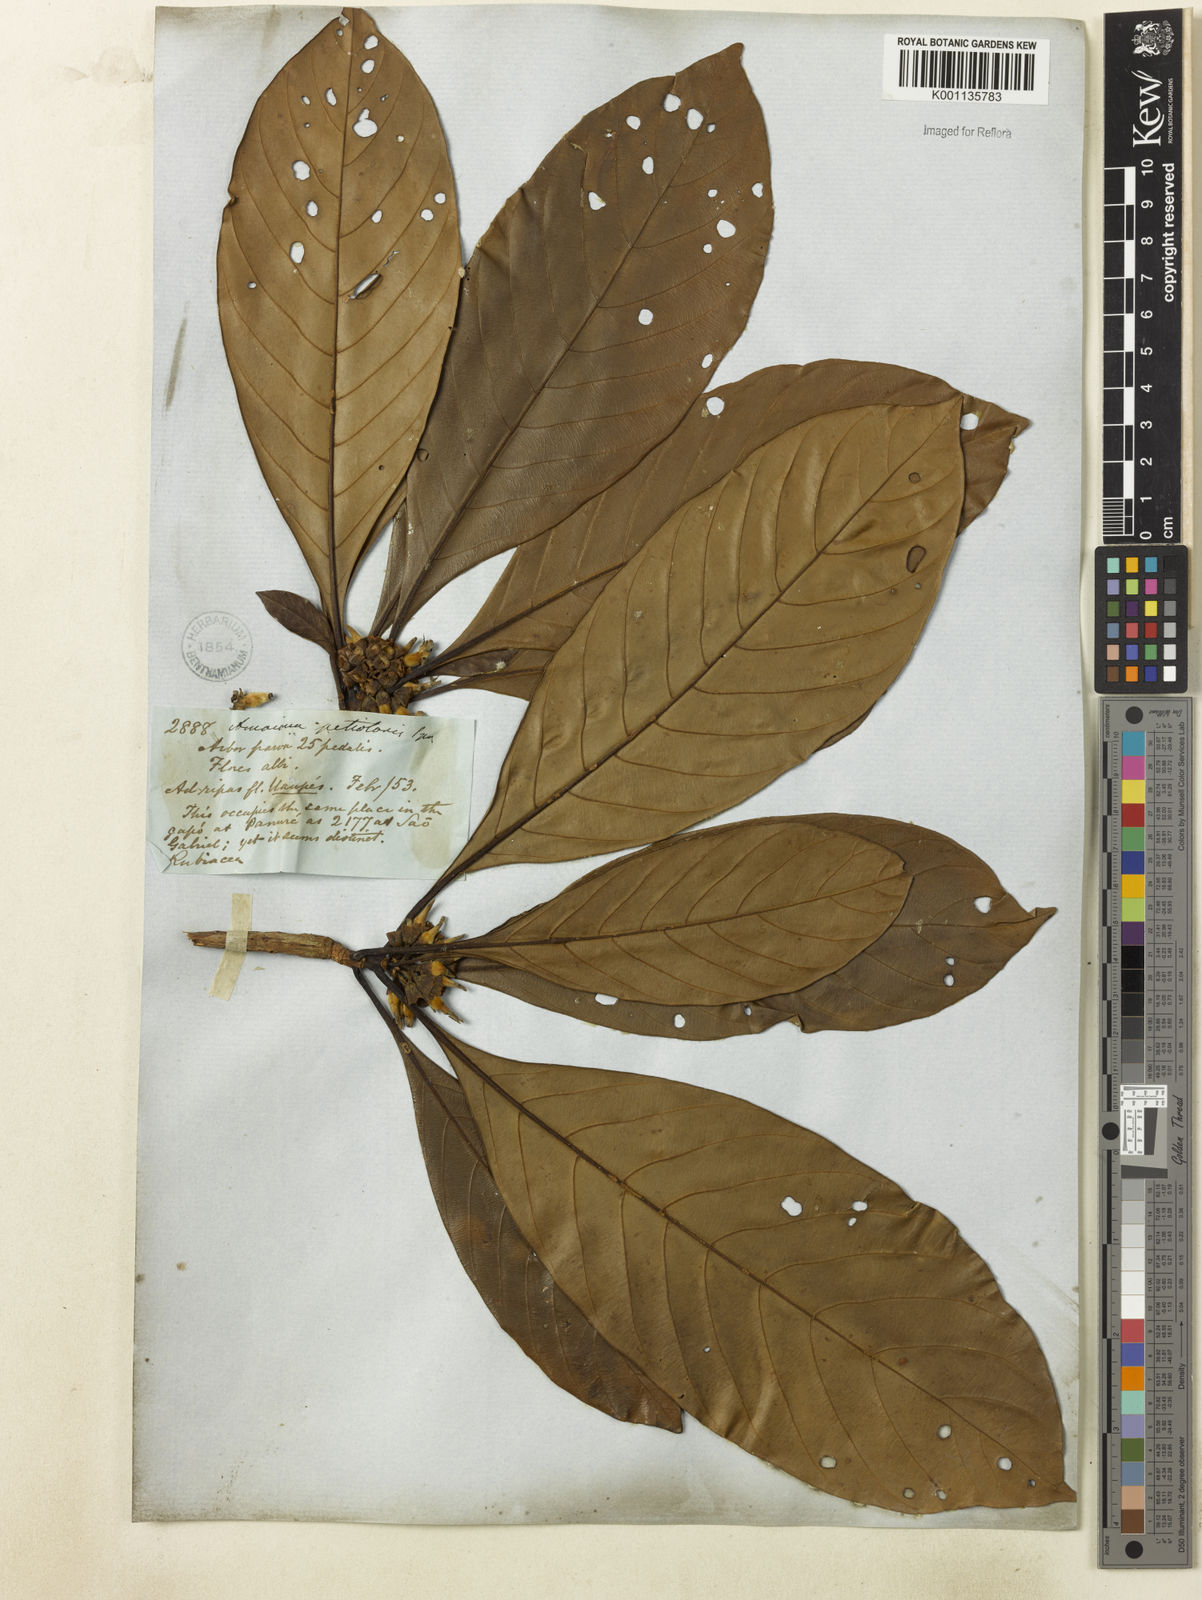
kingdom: Plantae
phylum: Tracheophyta
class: Magnoliopsida
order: Gentianales
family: Rubiaceae
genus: Duroia
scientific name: Duroia petiolaris
